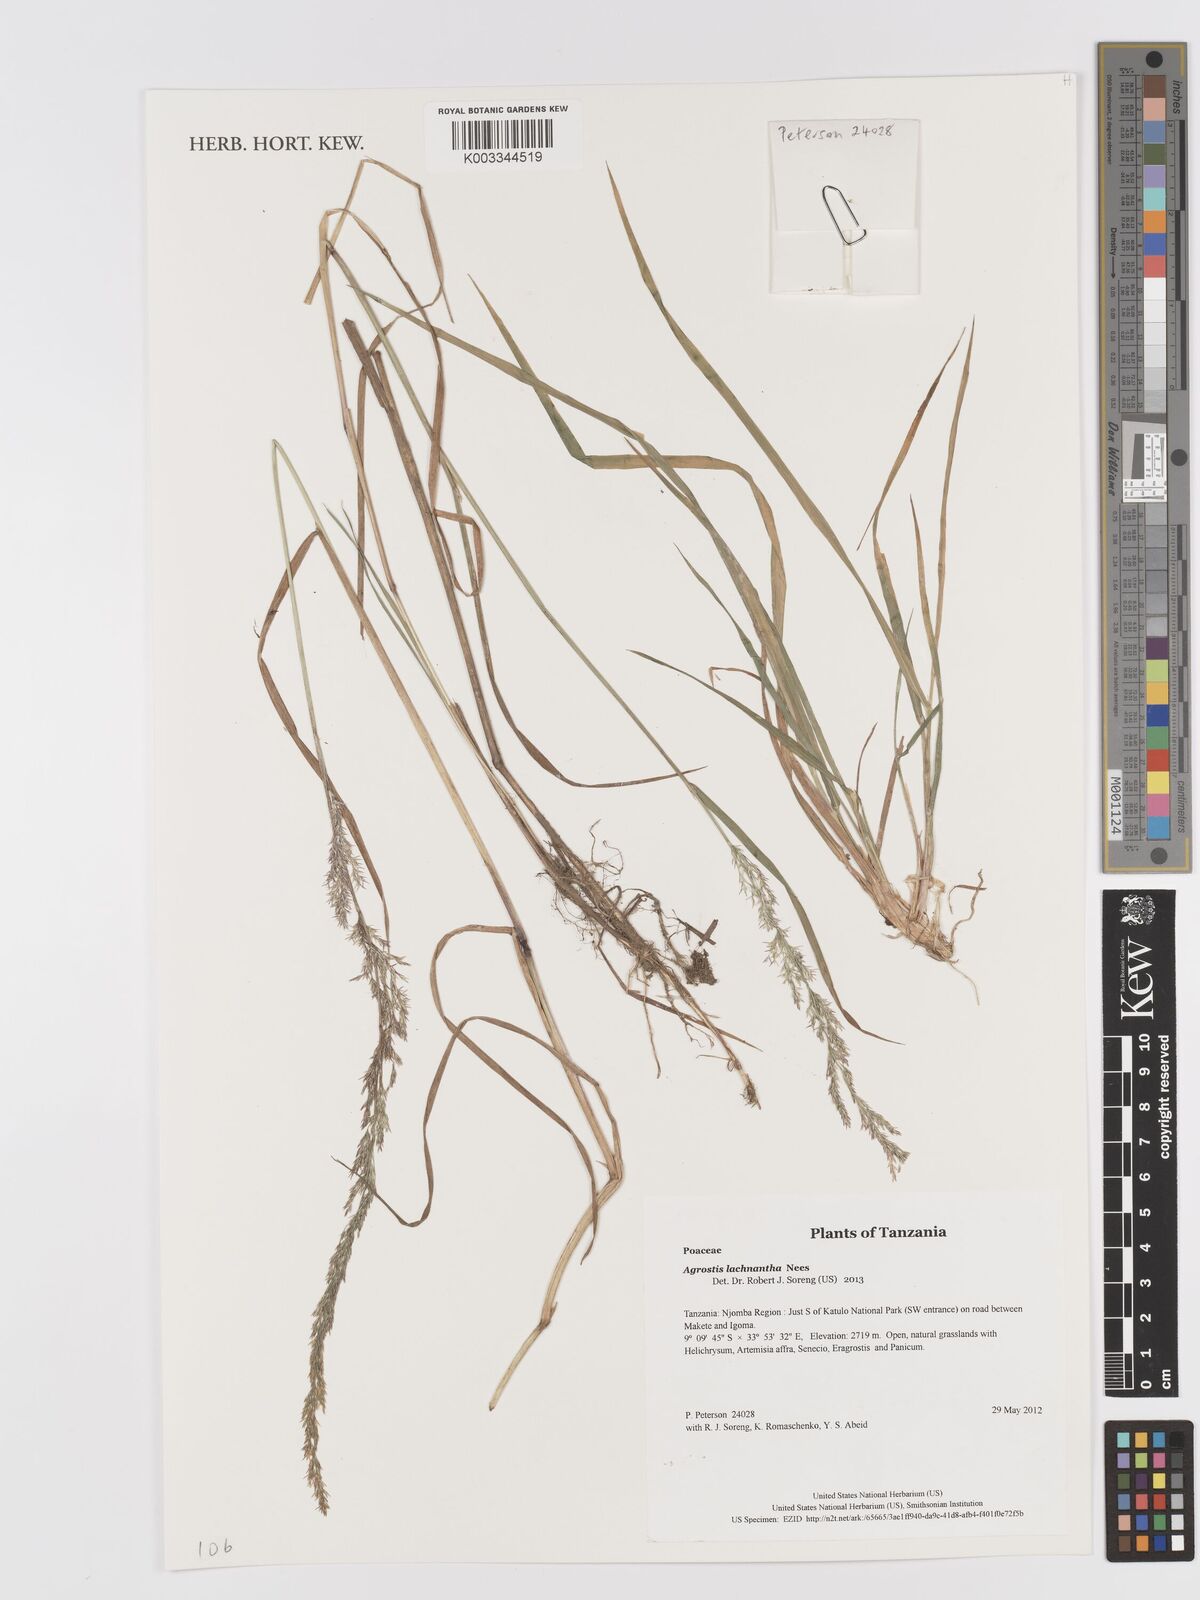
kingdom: Plantae
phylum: Tracheophyta
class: Liliopsida
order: Poales
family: Poaceae
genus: Lachnagrostis
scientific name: Lachnagrostis lachnantha
